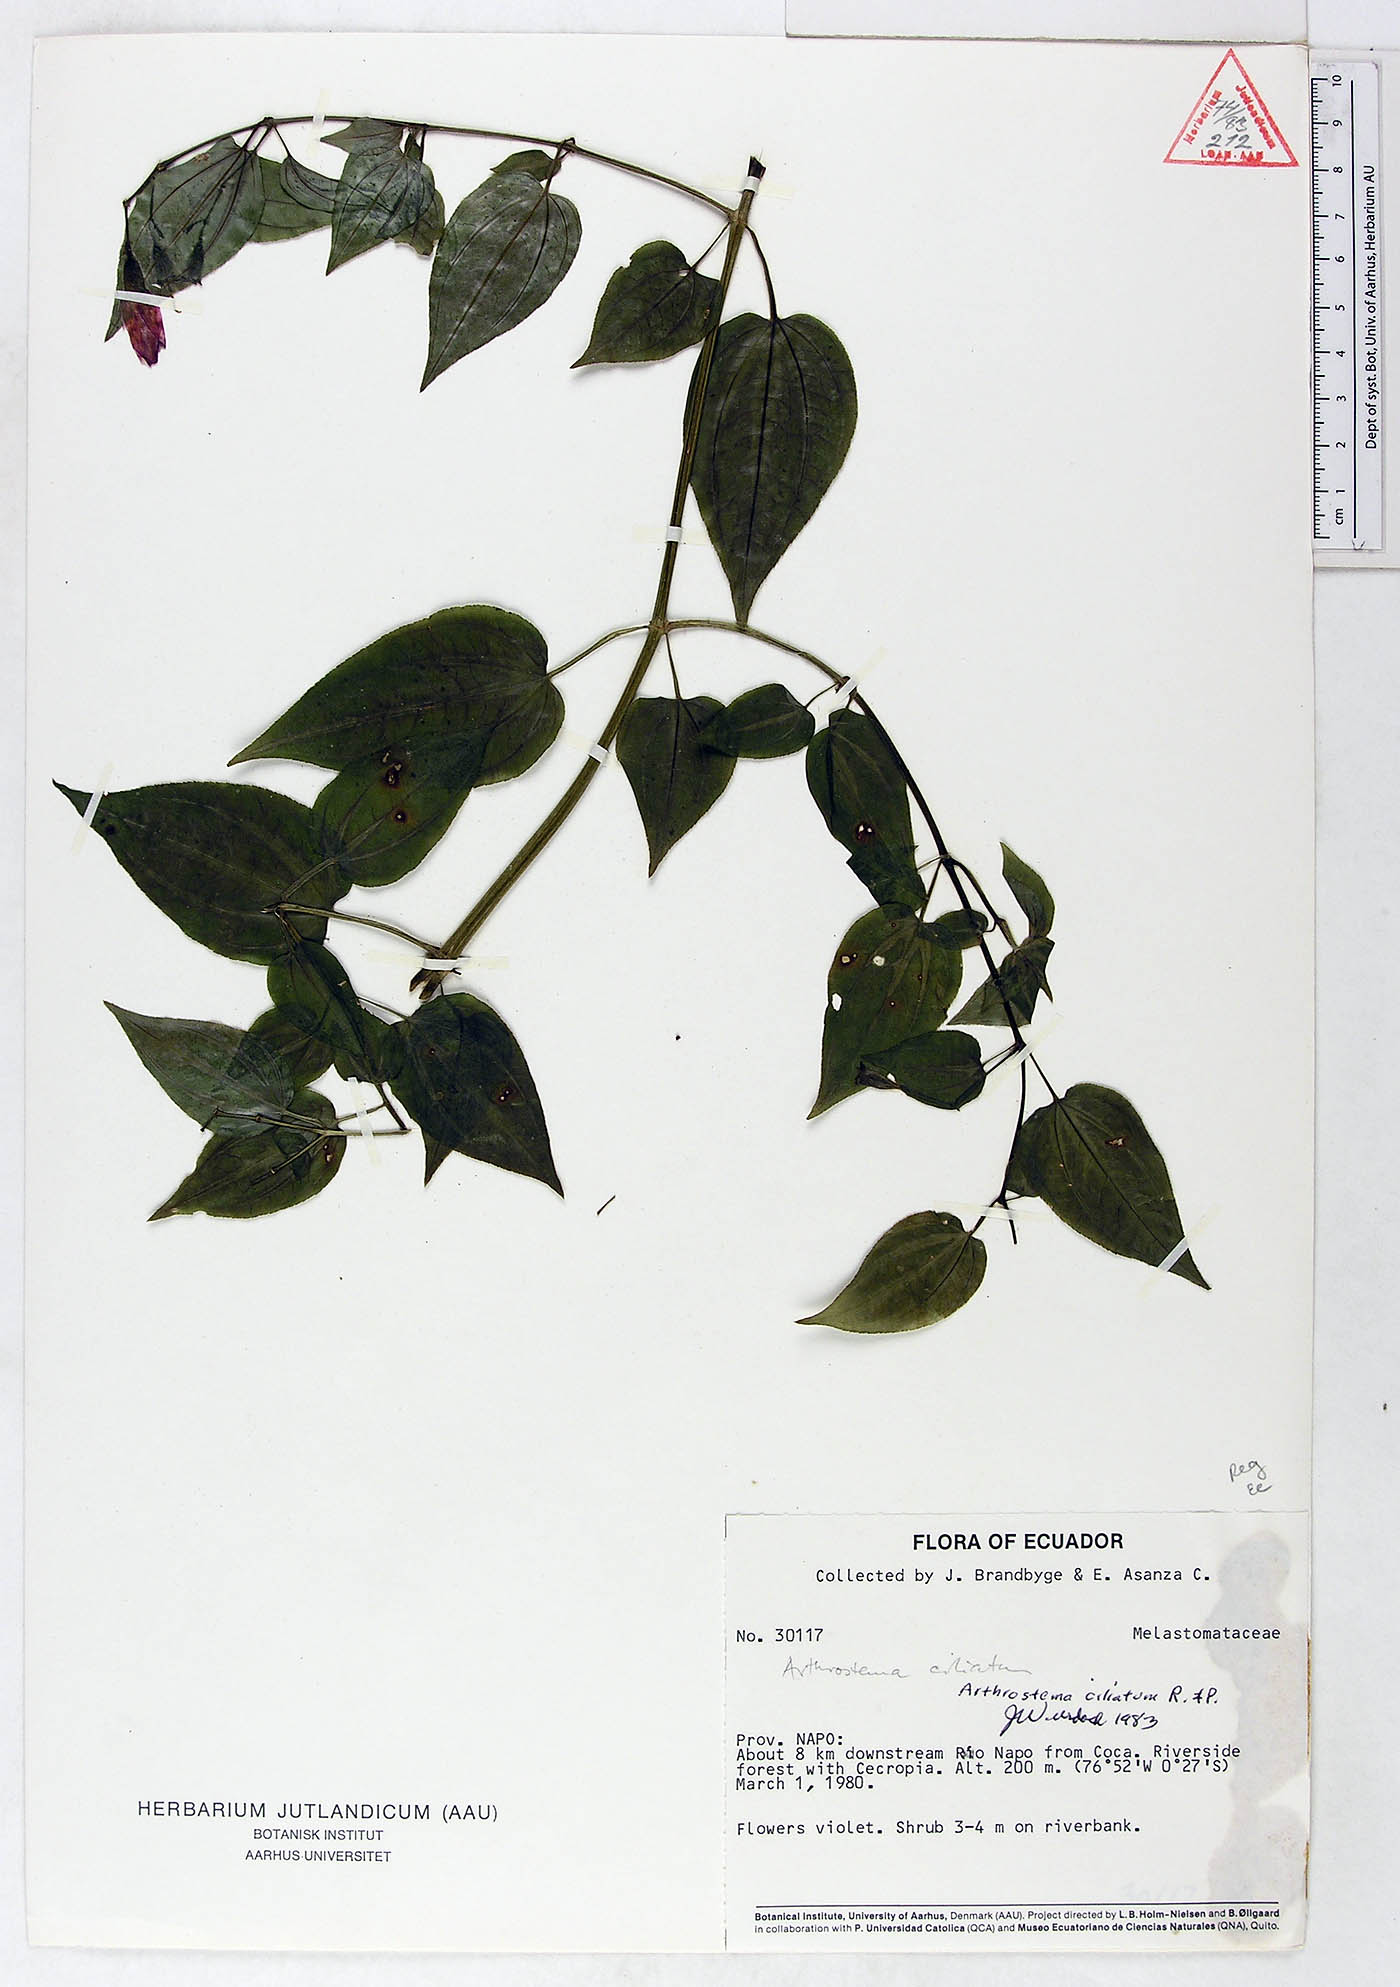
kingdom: Plantae
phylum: Tracheophyta
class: Magnoliopsida
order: Myrtales
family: Melastomataceae
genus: Arthrostemma
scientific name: Arthrostemma ciliatum
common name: Everblooming eavender
